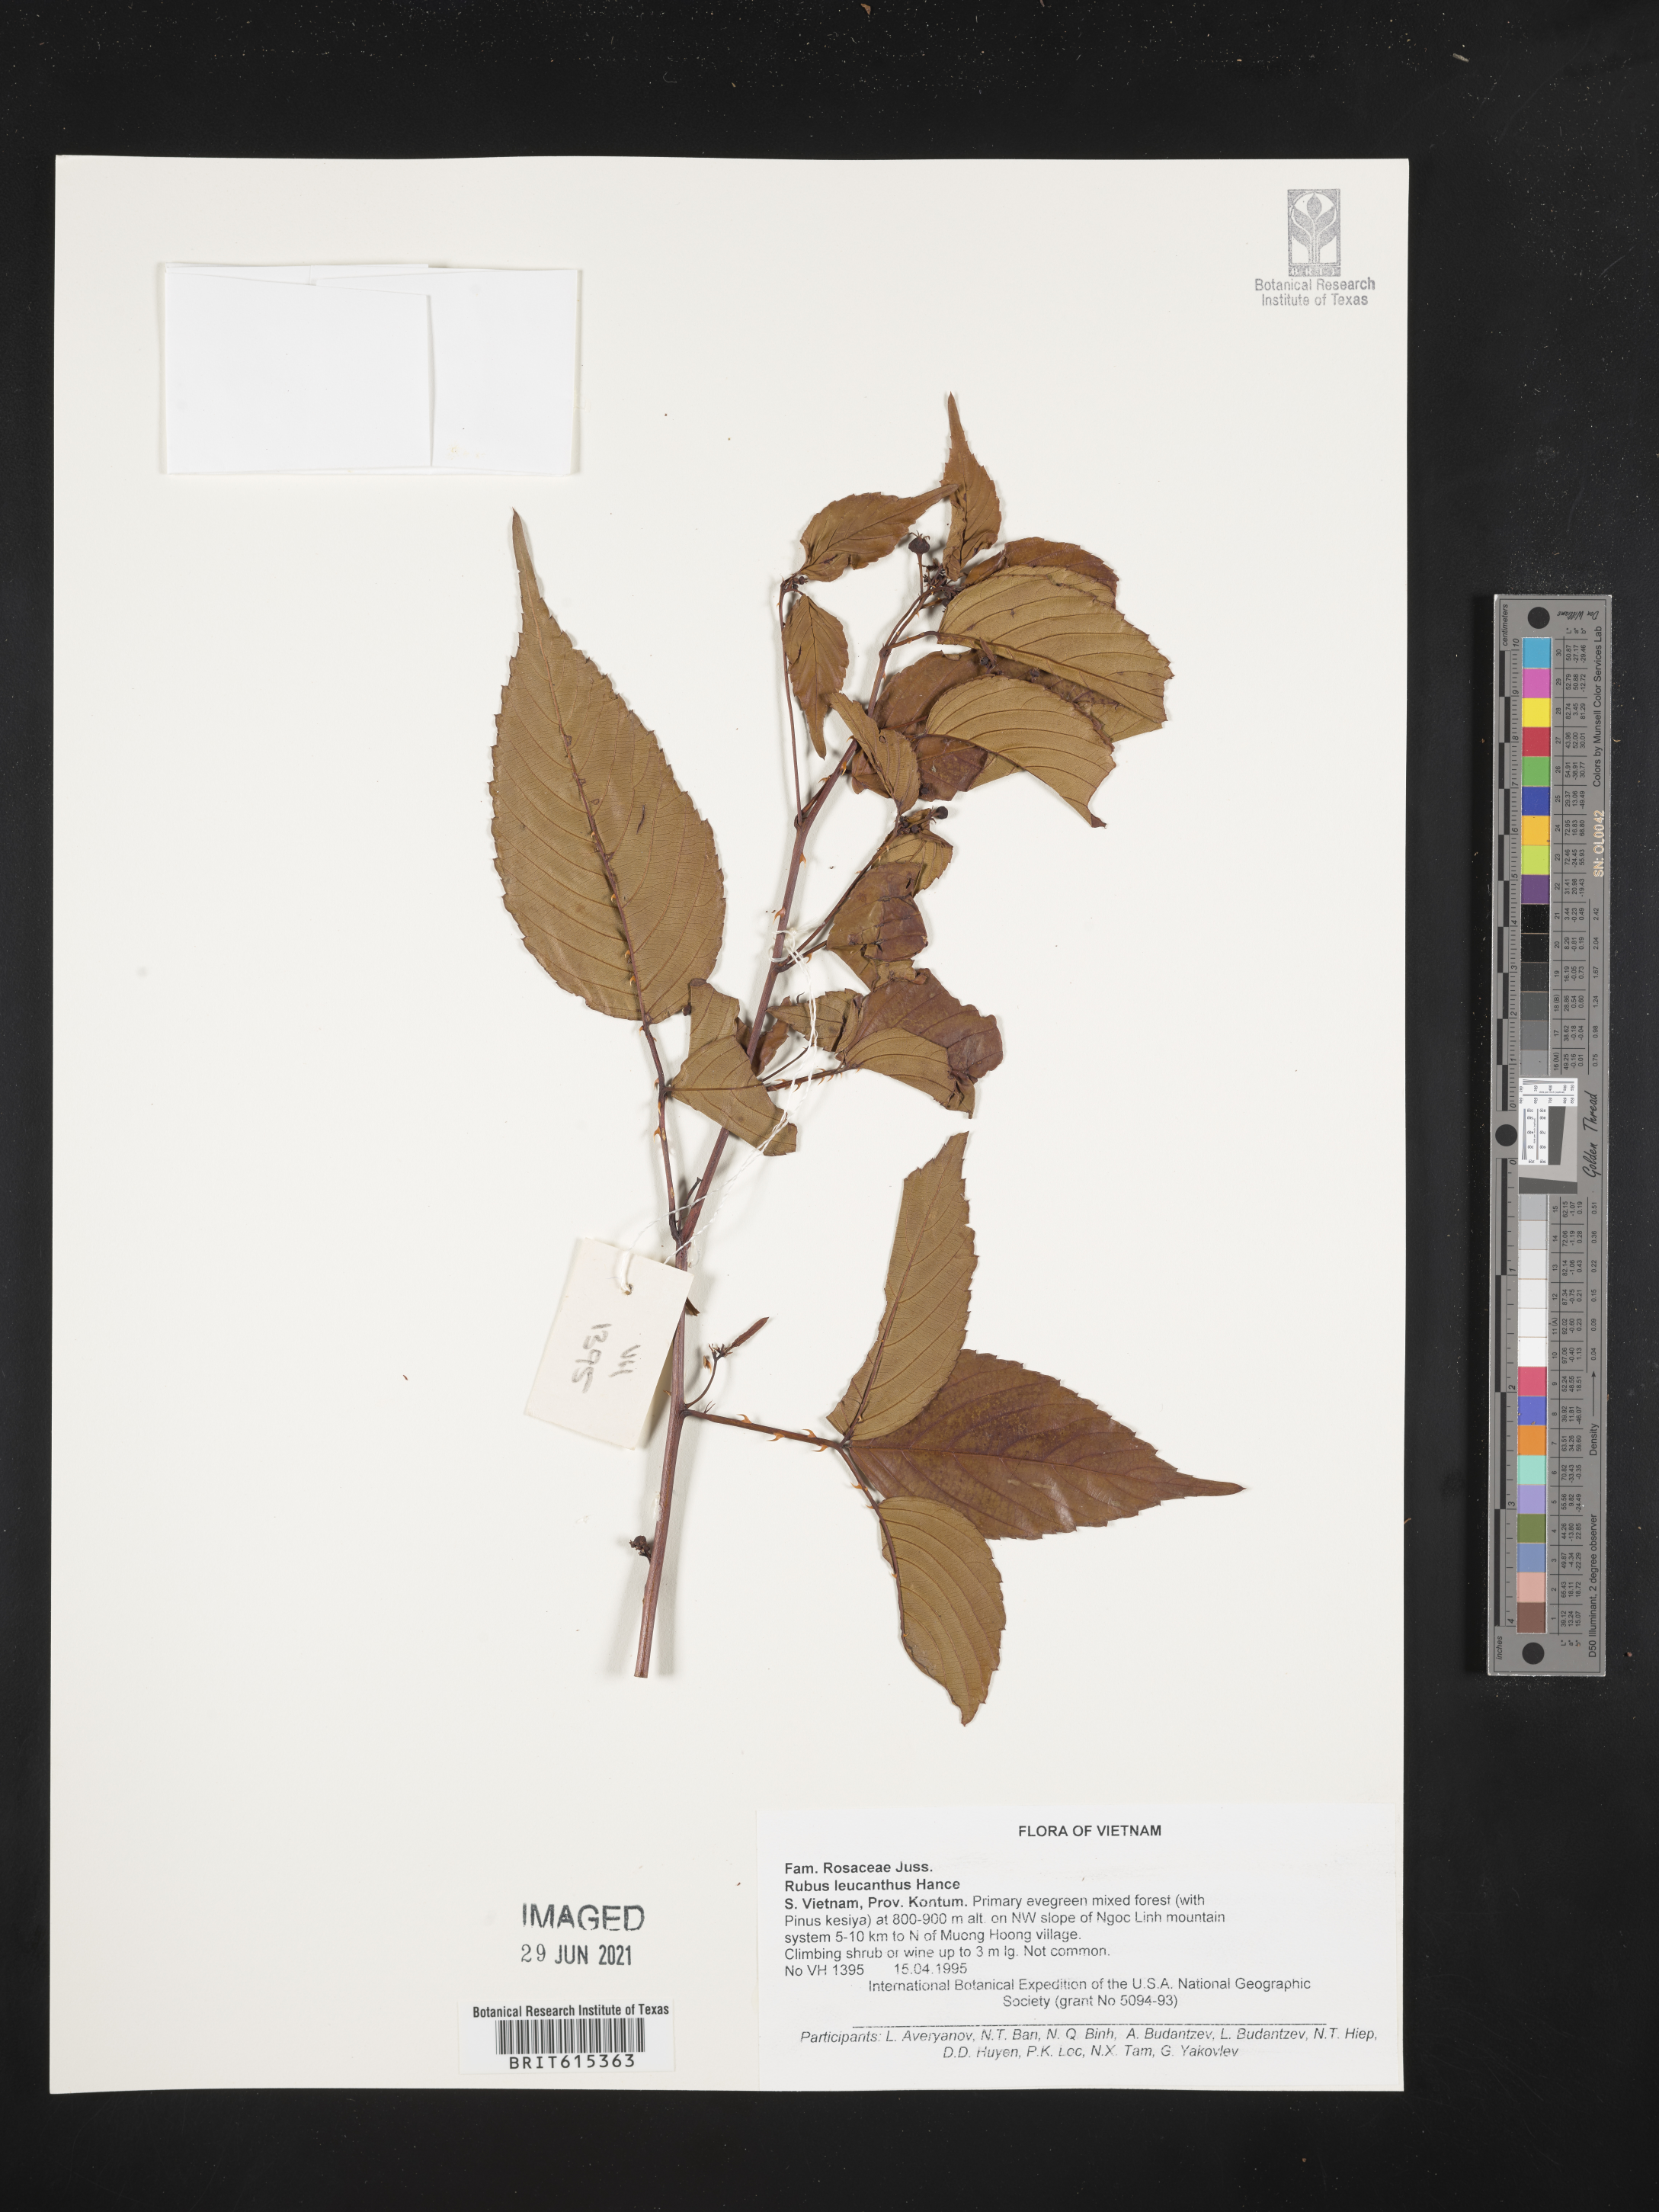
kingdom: Plantae
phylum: Tracheophyta
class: Magnoliopsida
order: Rosales
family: Rosaceae
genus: Rubus
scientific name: Rubus leucanthus
